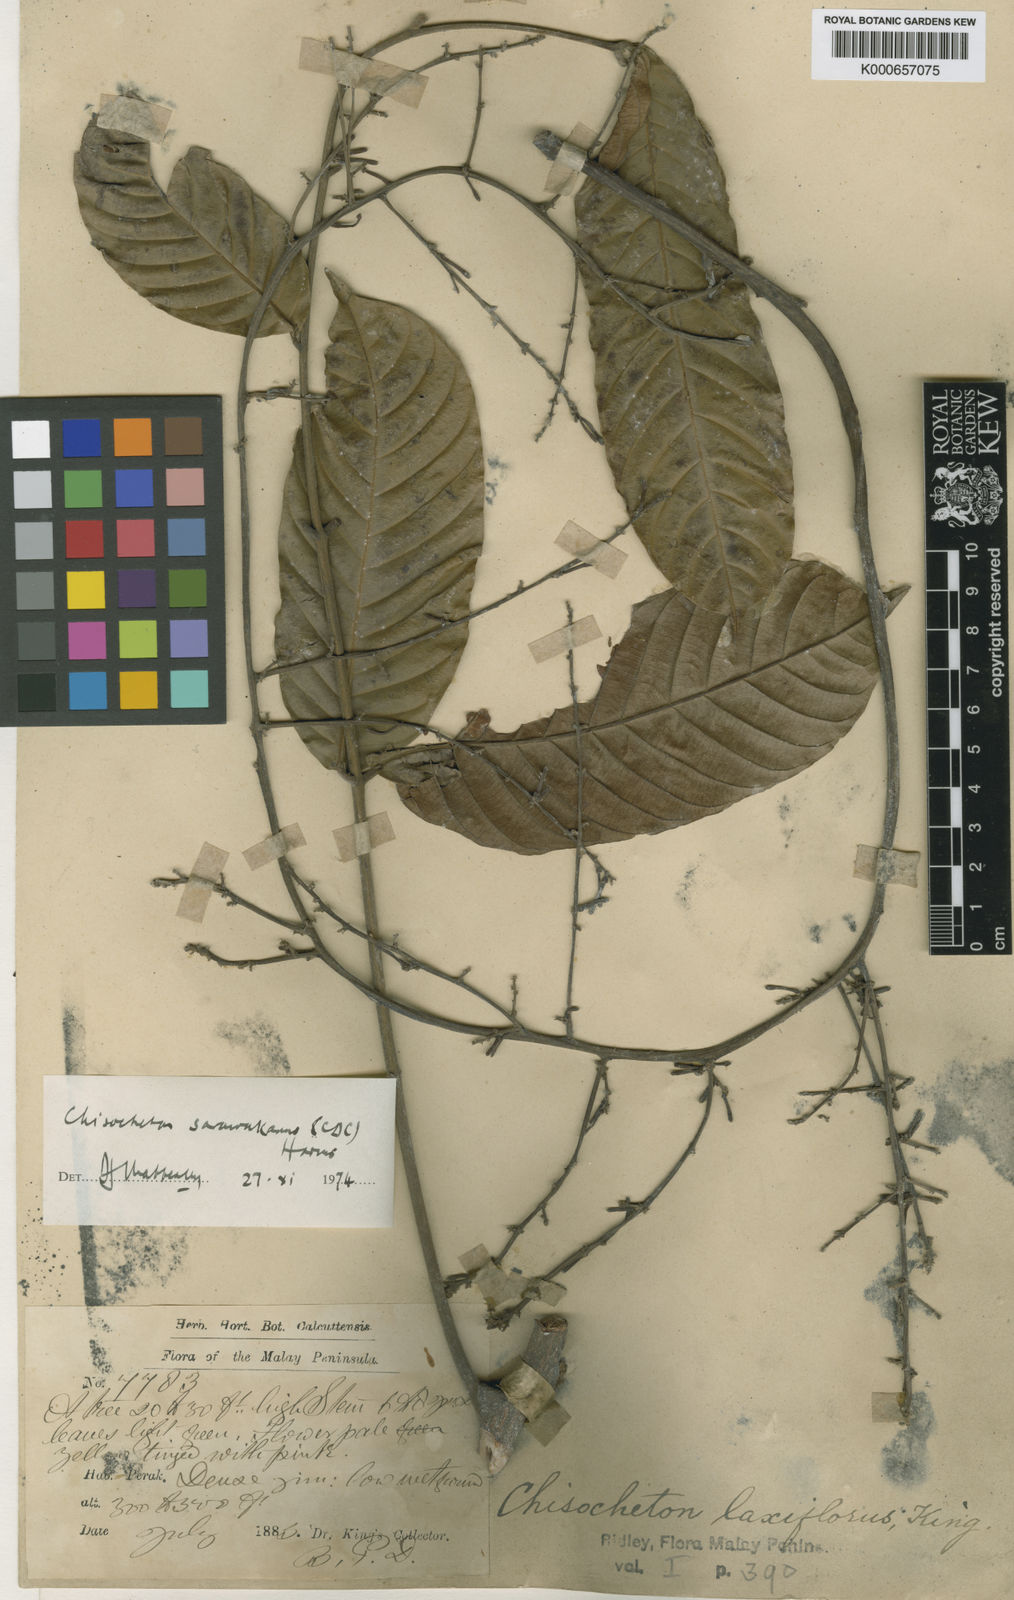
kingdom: Plantae
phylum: Tracheophyta
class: Magnoliopsida
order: Sapindales
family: Meliaceae
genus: Chisocheton
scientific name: Chisocheton sarawakanus
